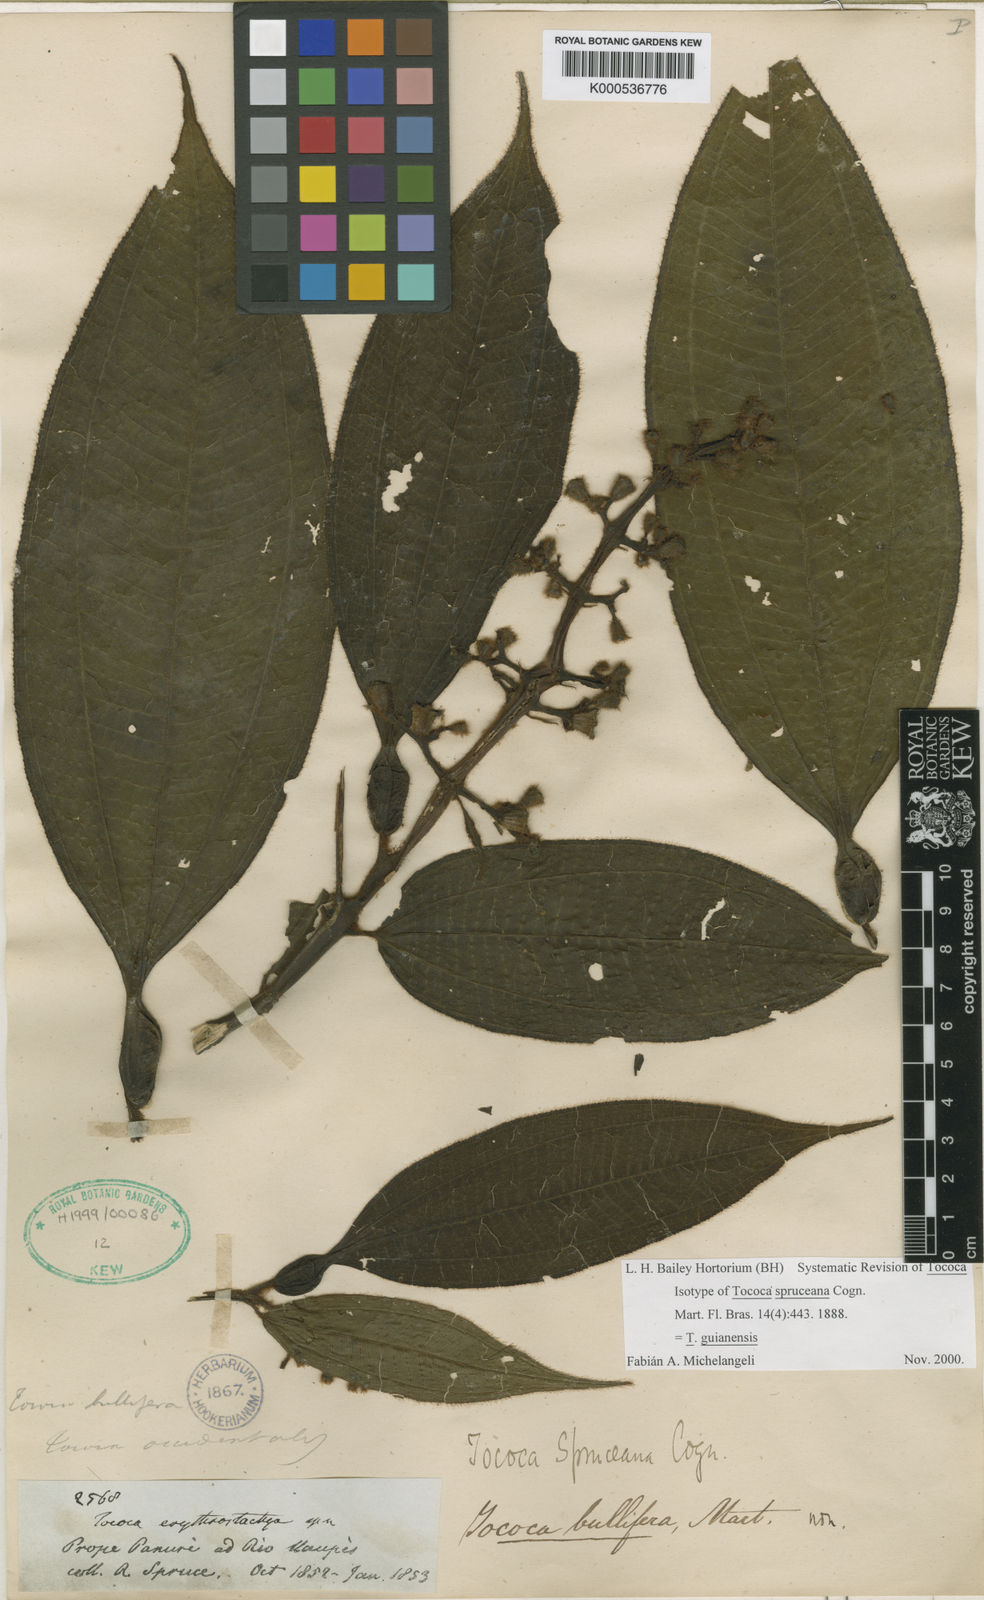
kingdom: Plantae
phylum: Tracheophyta
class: Magnoliopsida
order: Myrtales
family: Melastomataceae
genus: Miconia
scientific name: Miconia
